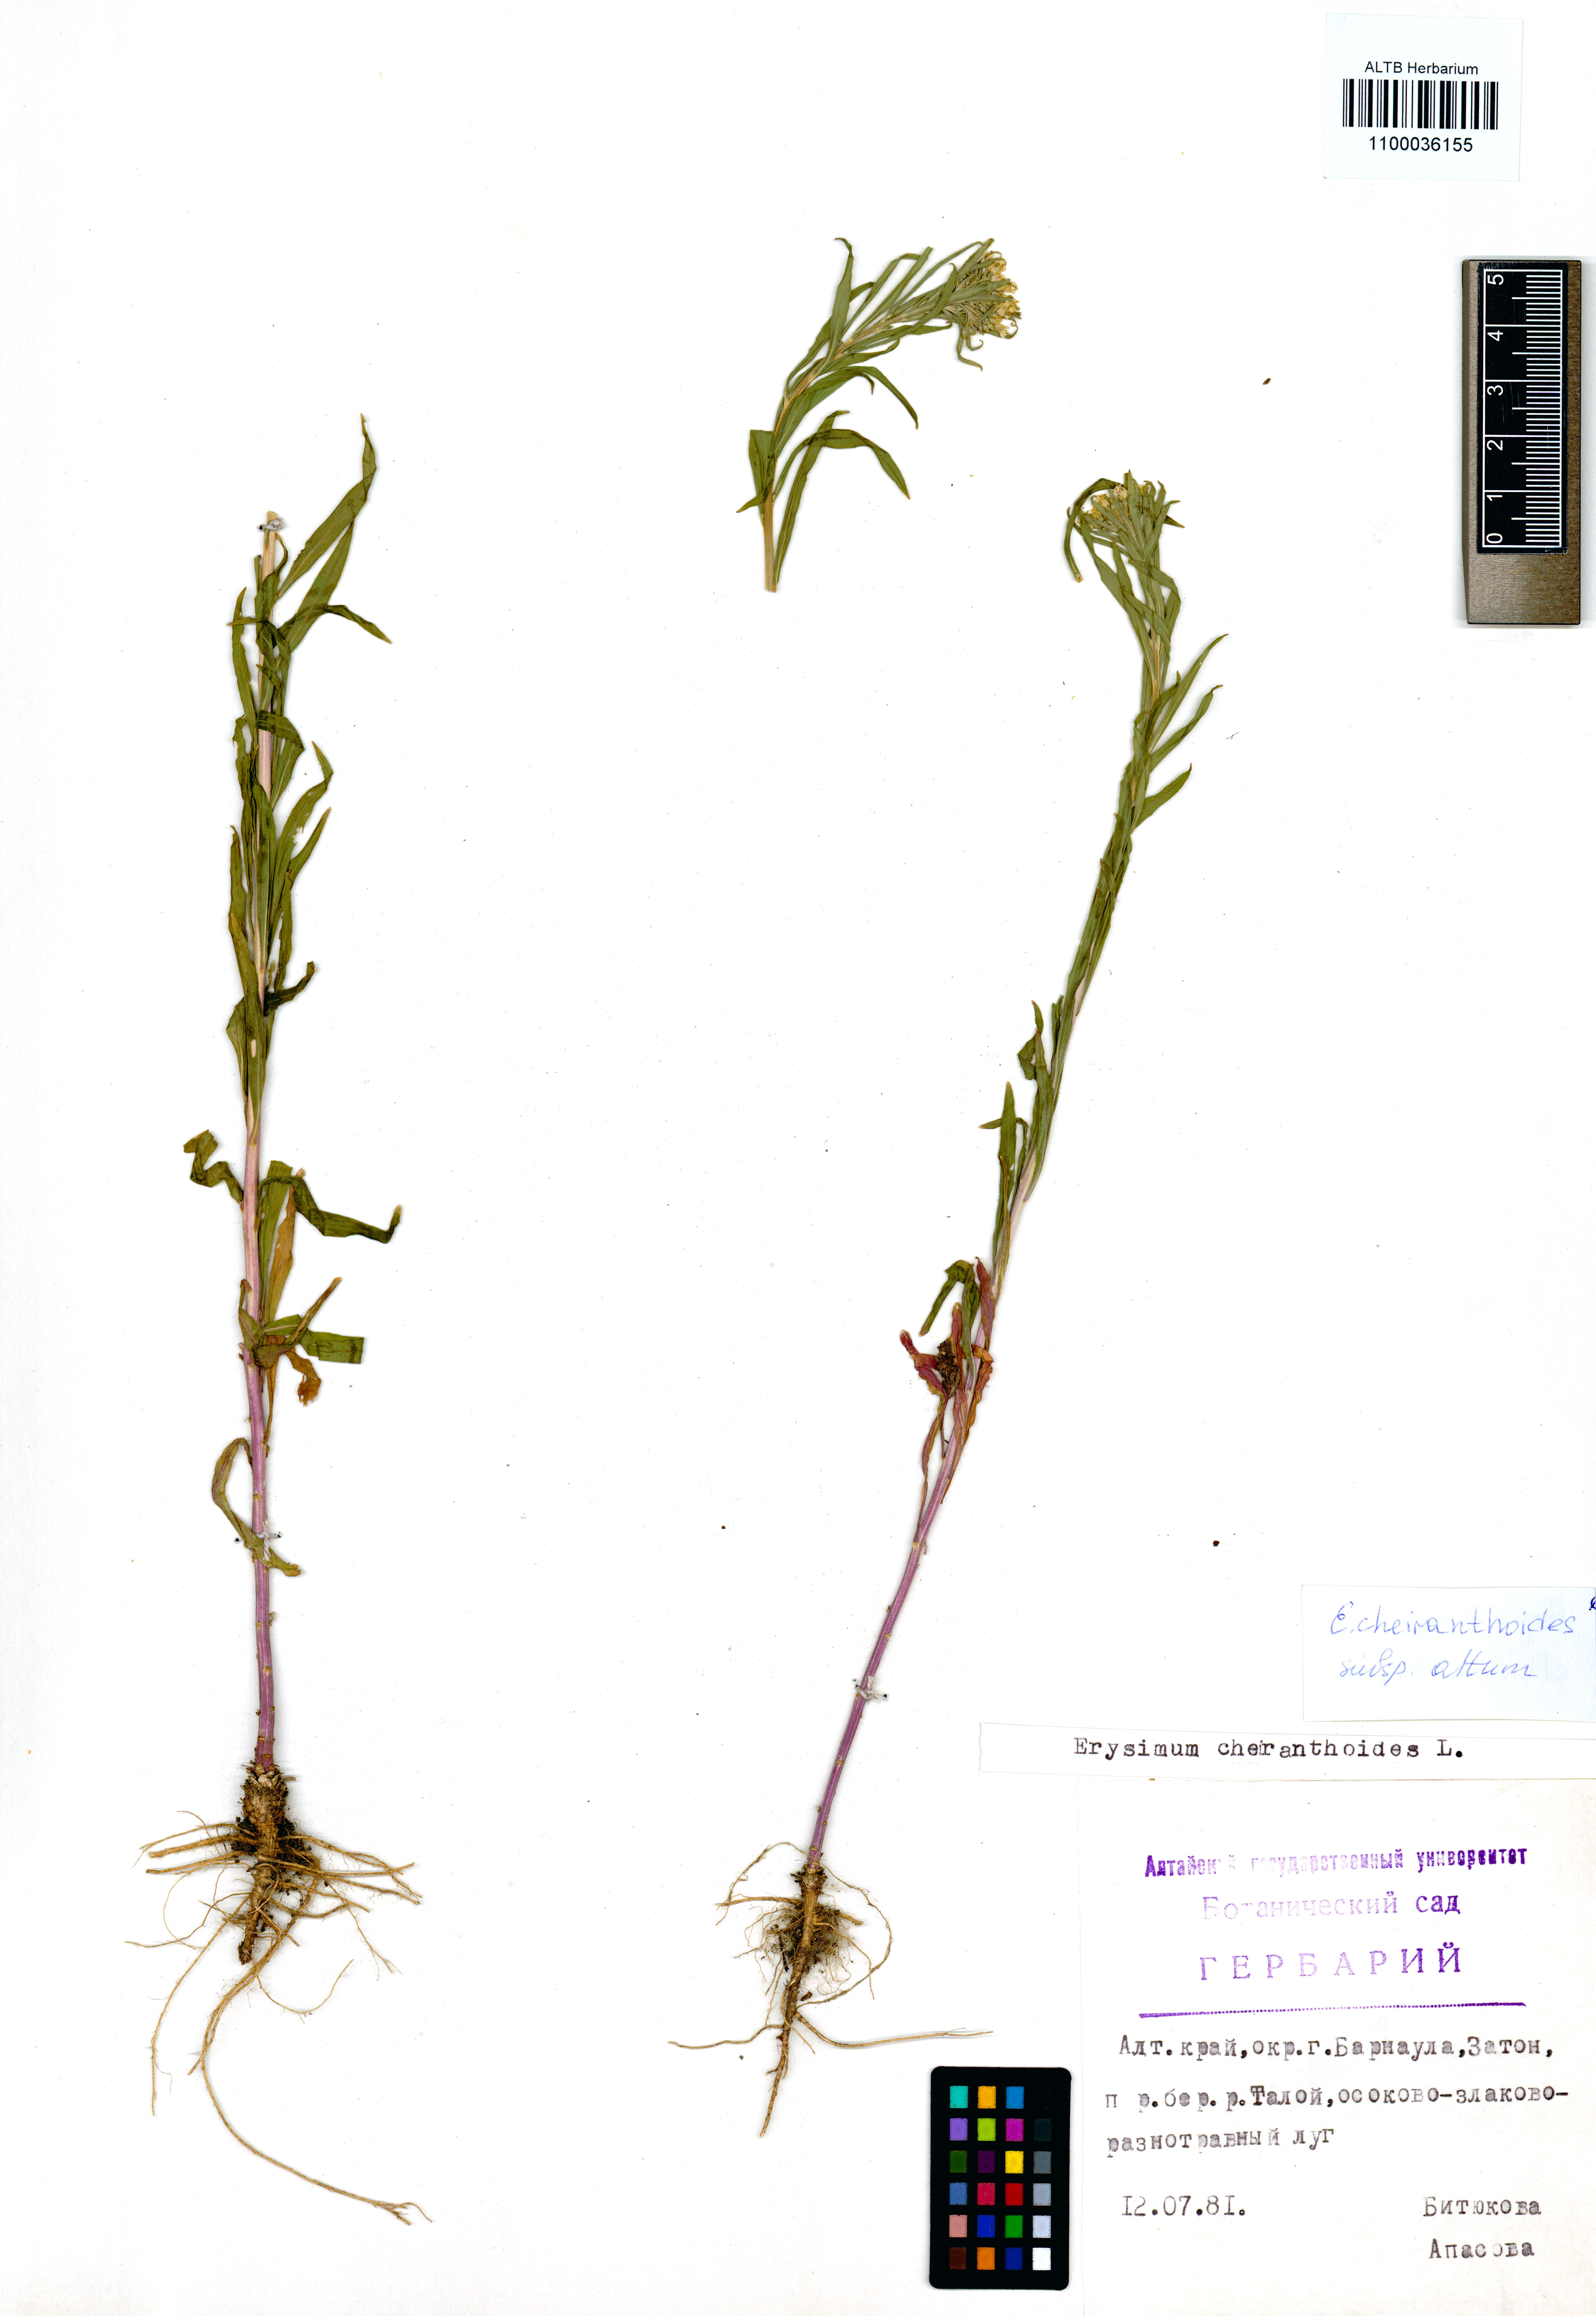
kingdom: Plantae
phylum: Tracheophyta
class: Magnoliopsida
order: Brassicales
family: Brassicaceae
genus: Erysimum
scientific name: Erysimum cheiranthoides
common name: Treacle mustard
